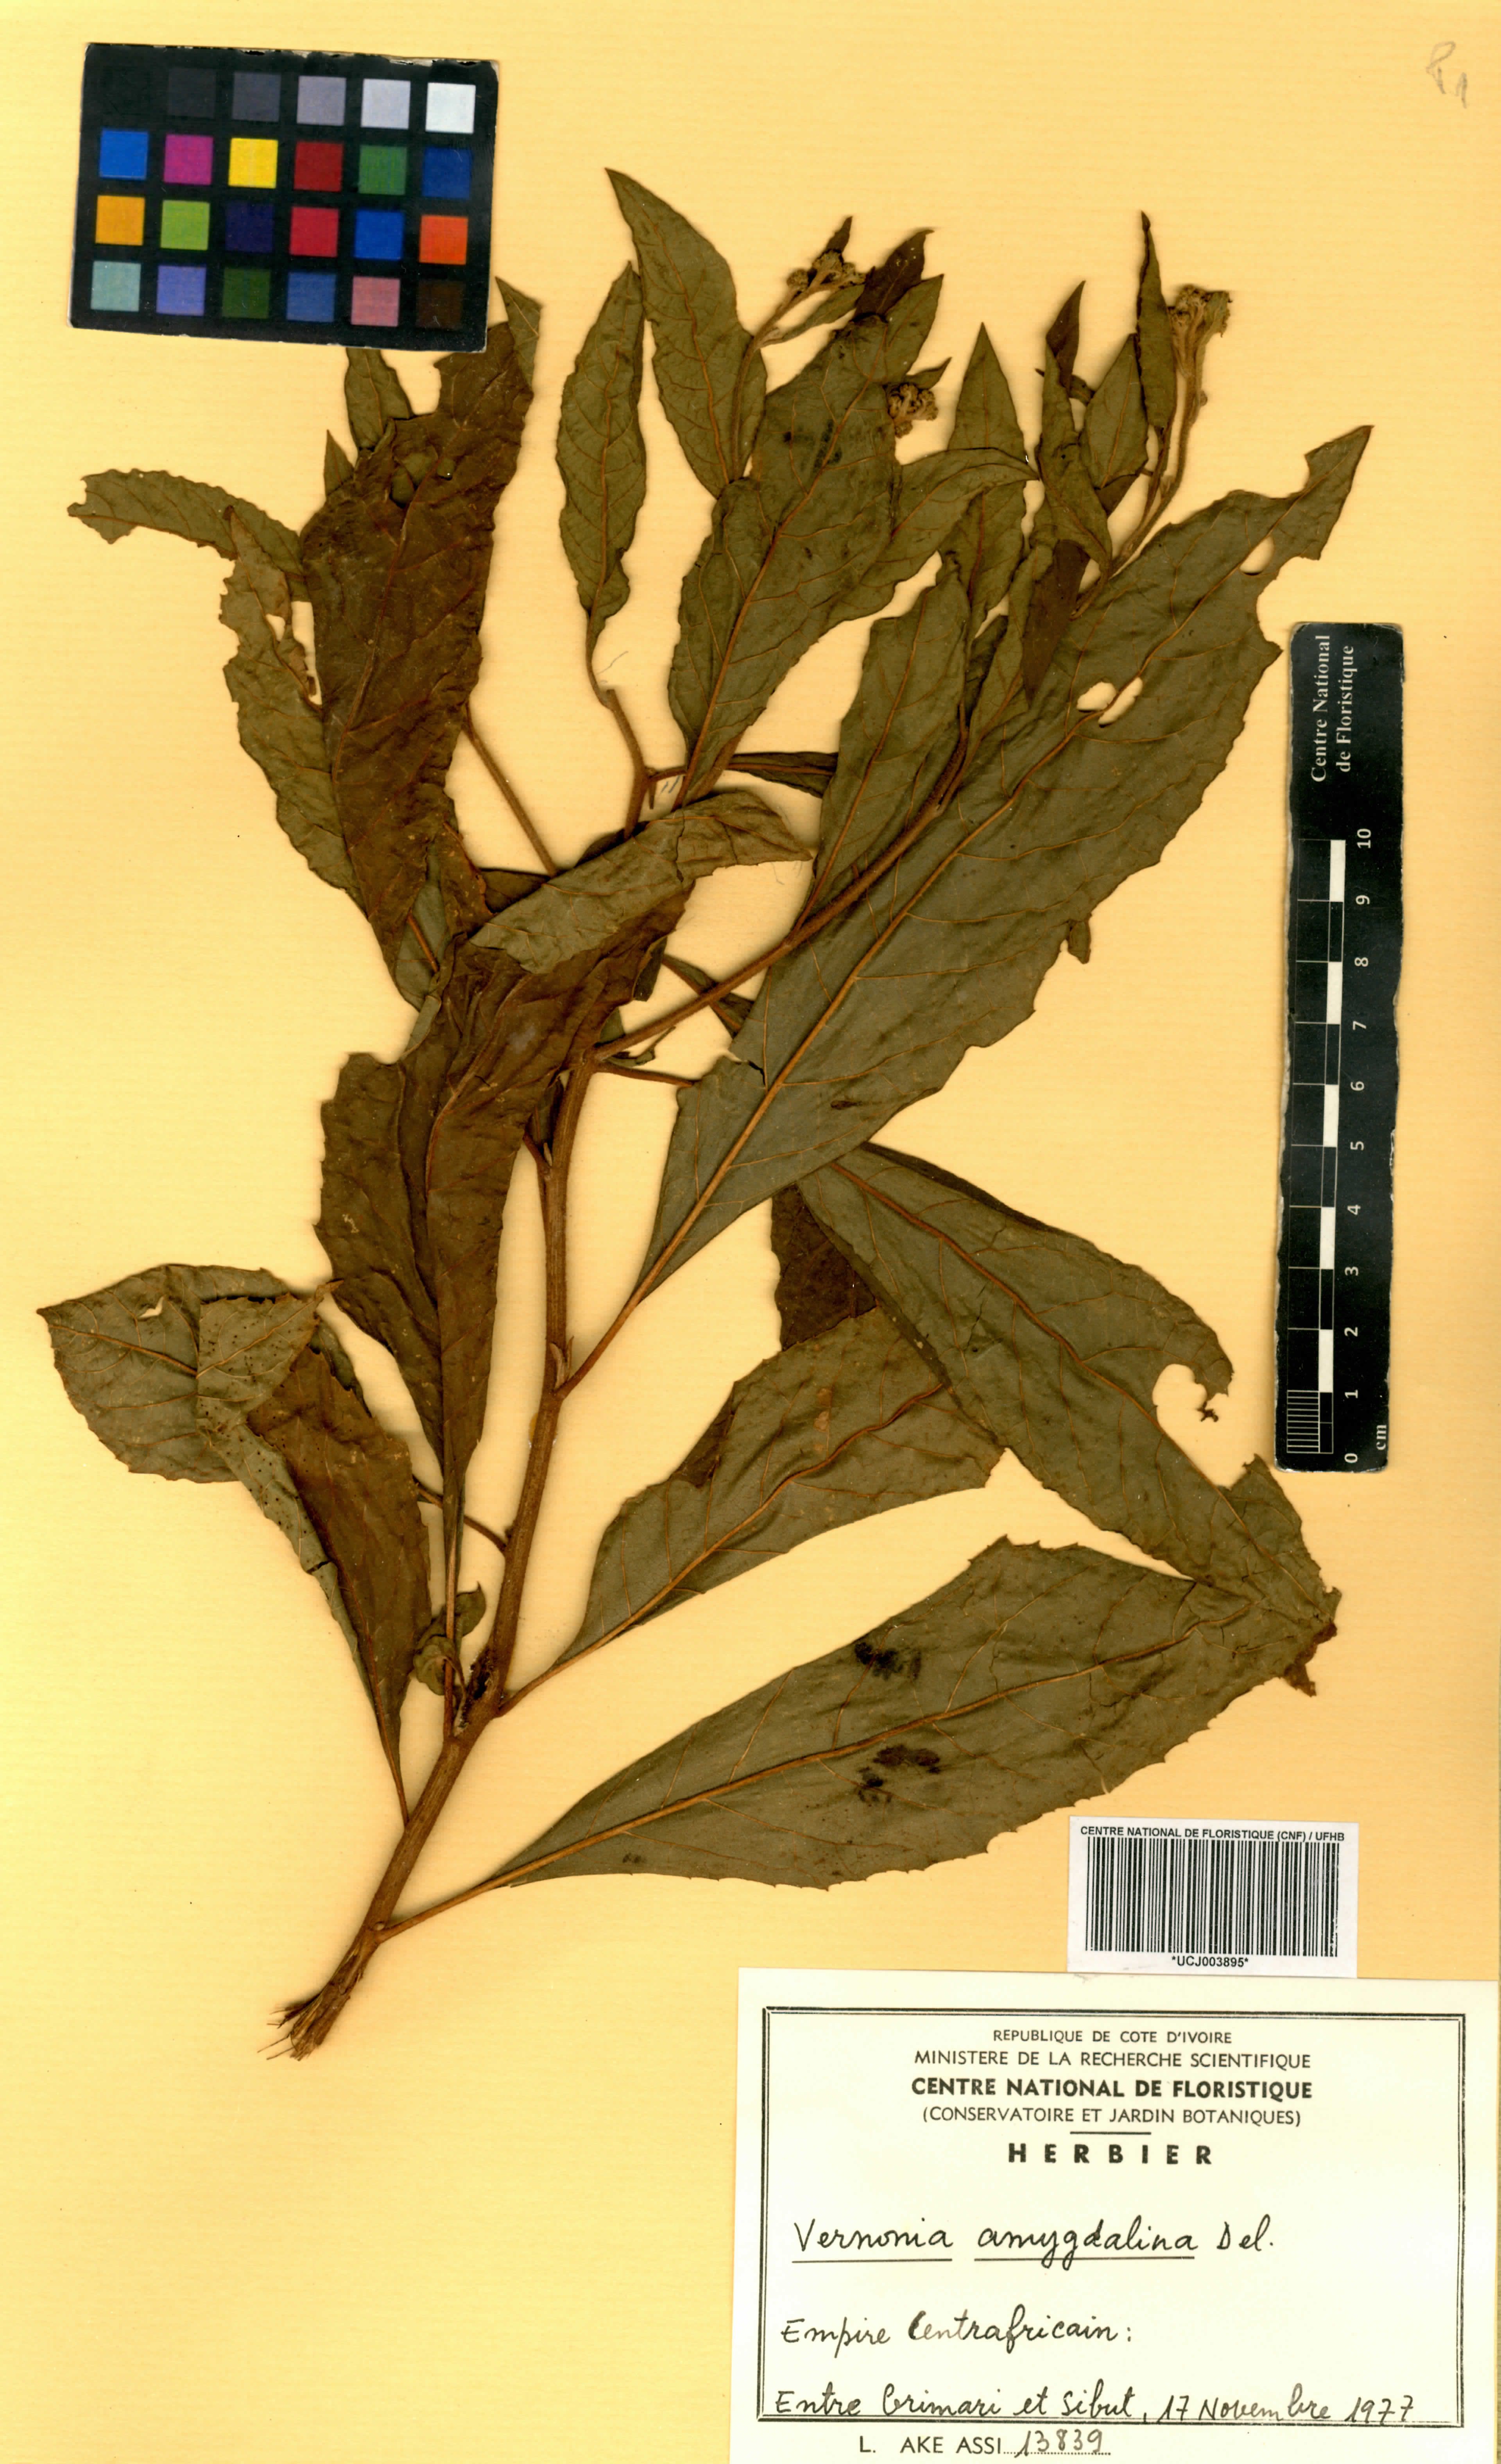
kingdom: Plantae
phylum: Tracheophyta
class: Magnoliopsida
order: Asterales
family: Asteraceae
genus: Gymnanthemum
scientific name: Gymnanthemum amygdalinum
